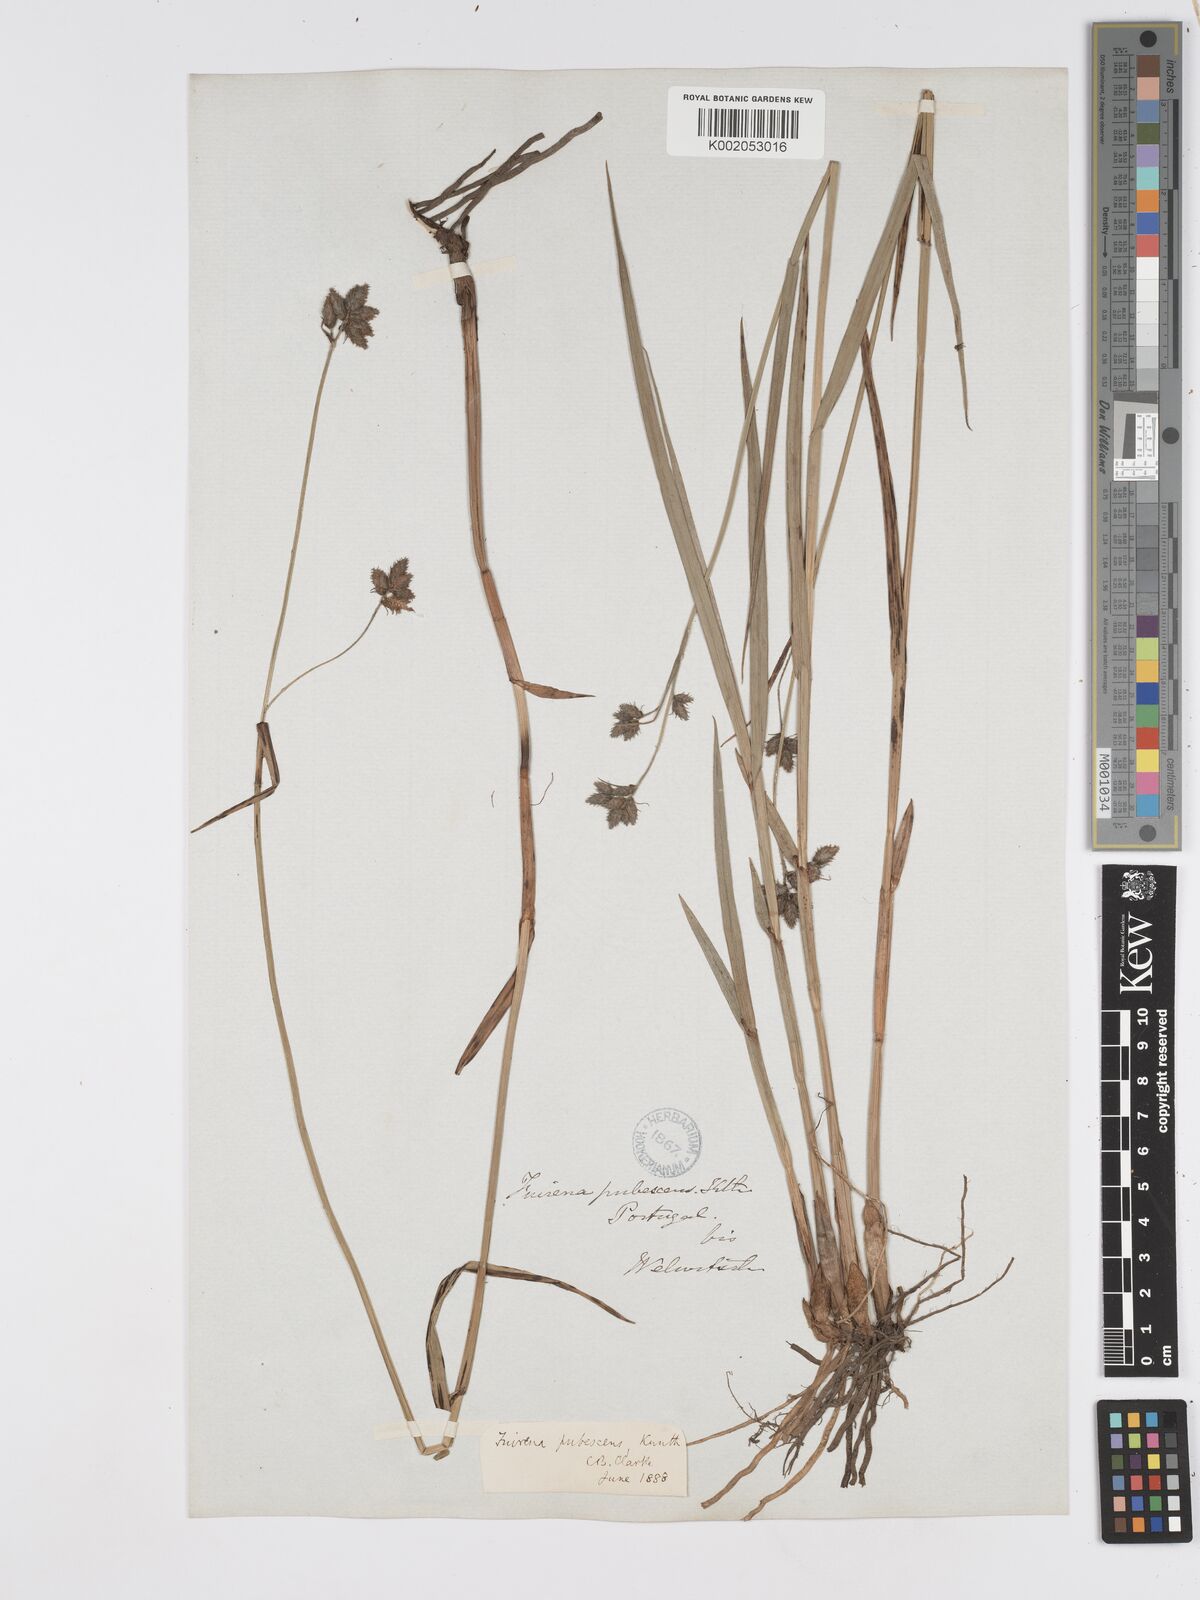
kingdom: Plantae
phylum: Tracheophyta
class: Liliopsida
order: Poales
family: Cyperaceae
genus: Fuirena
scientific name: Fuirena pubescens
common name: Hairy sedge
